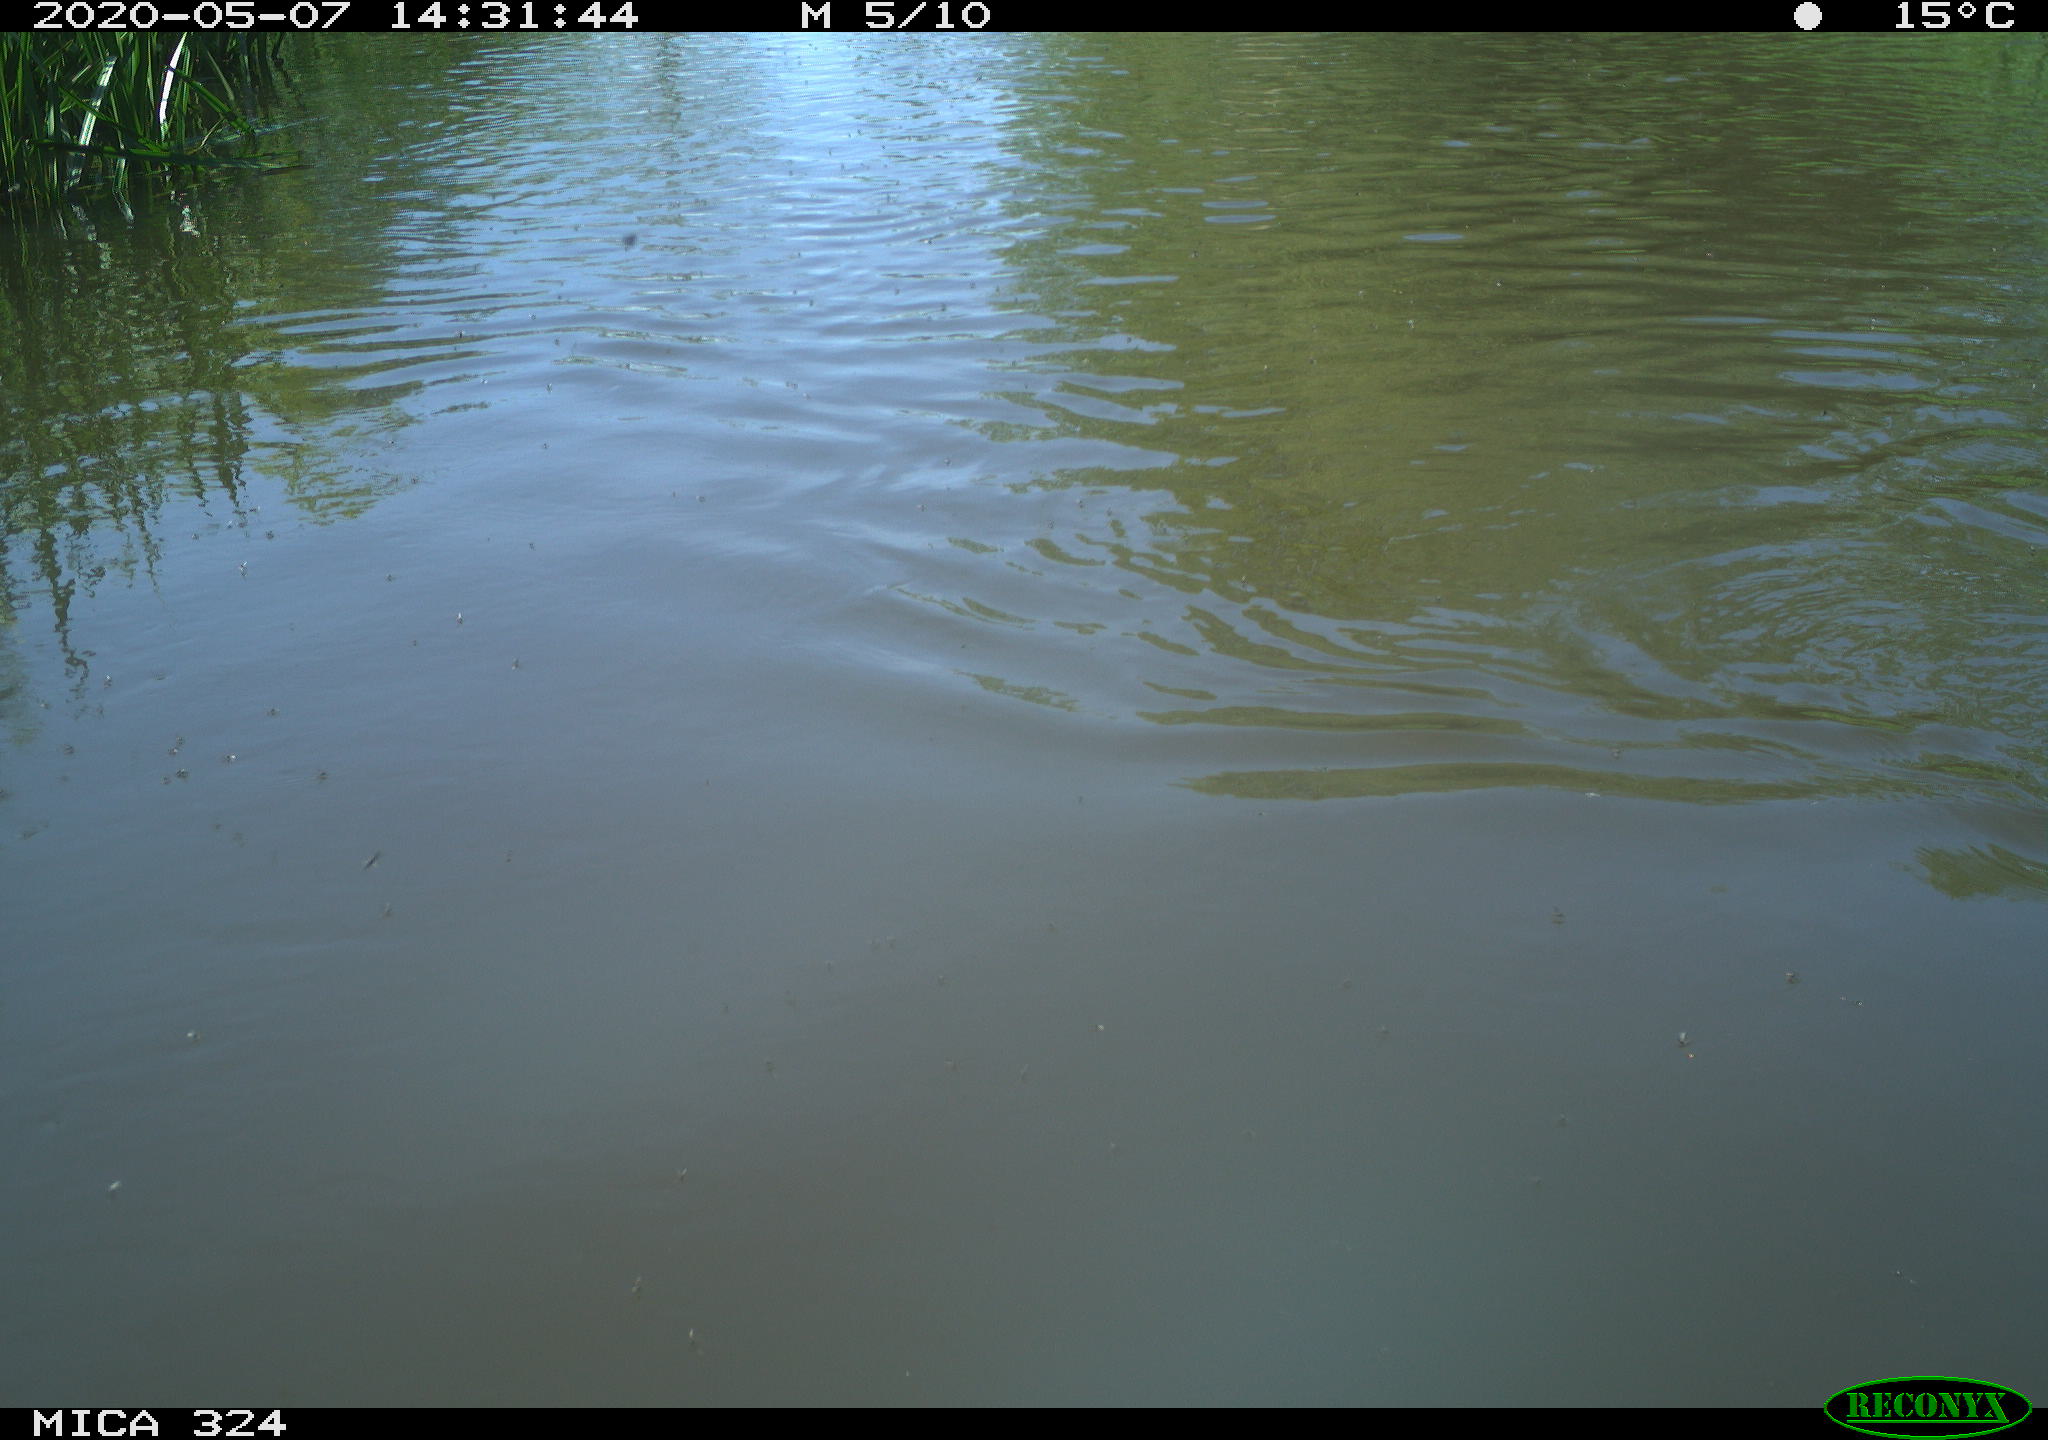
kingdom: Animalia
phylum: Chordata
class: Aves
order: Gruiformes
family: Rallidae
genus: Gallinula
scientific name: Gallinula chloropus
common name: Common moorhen
